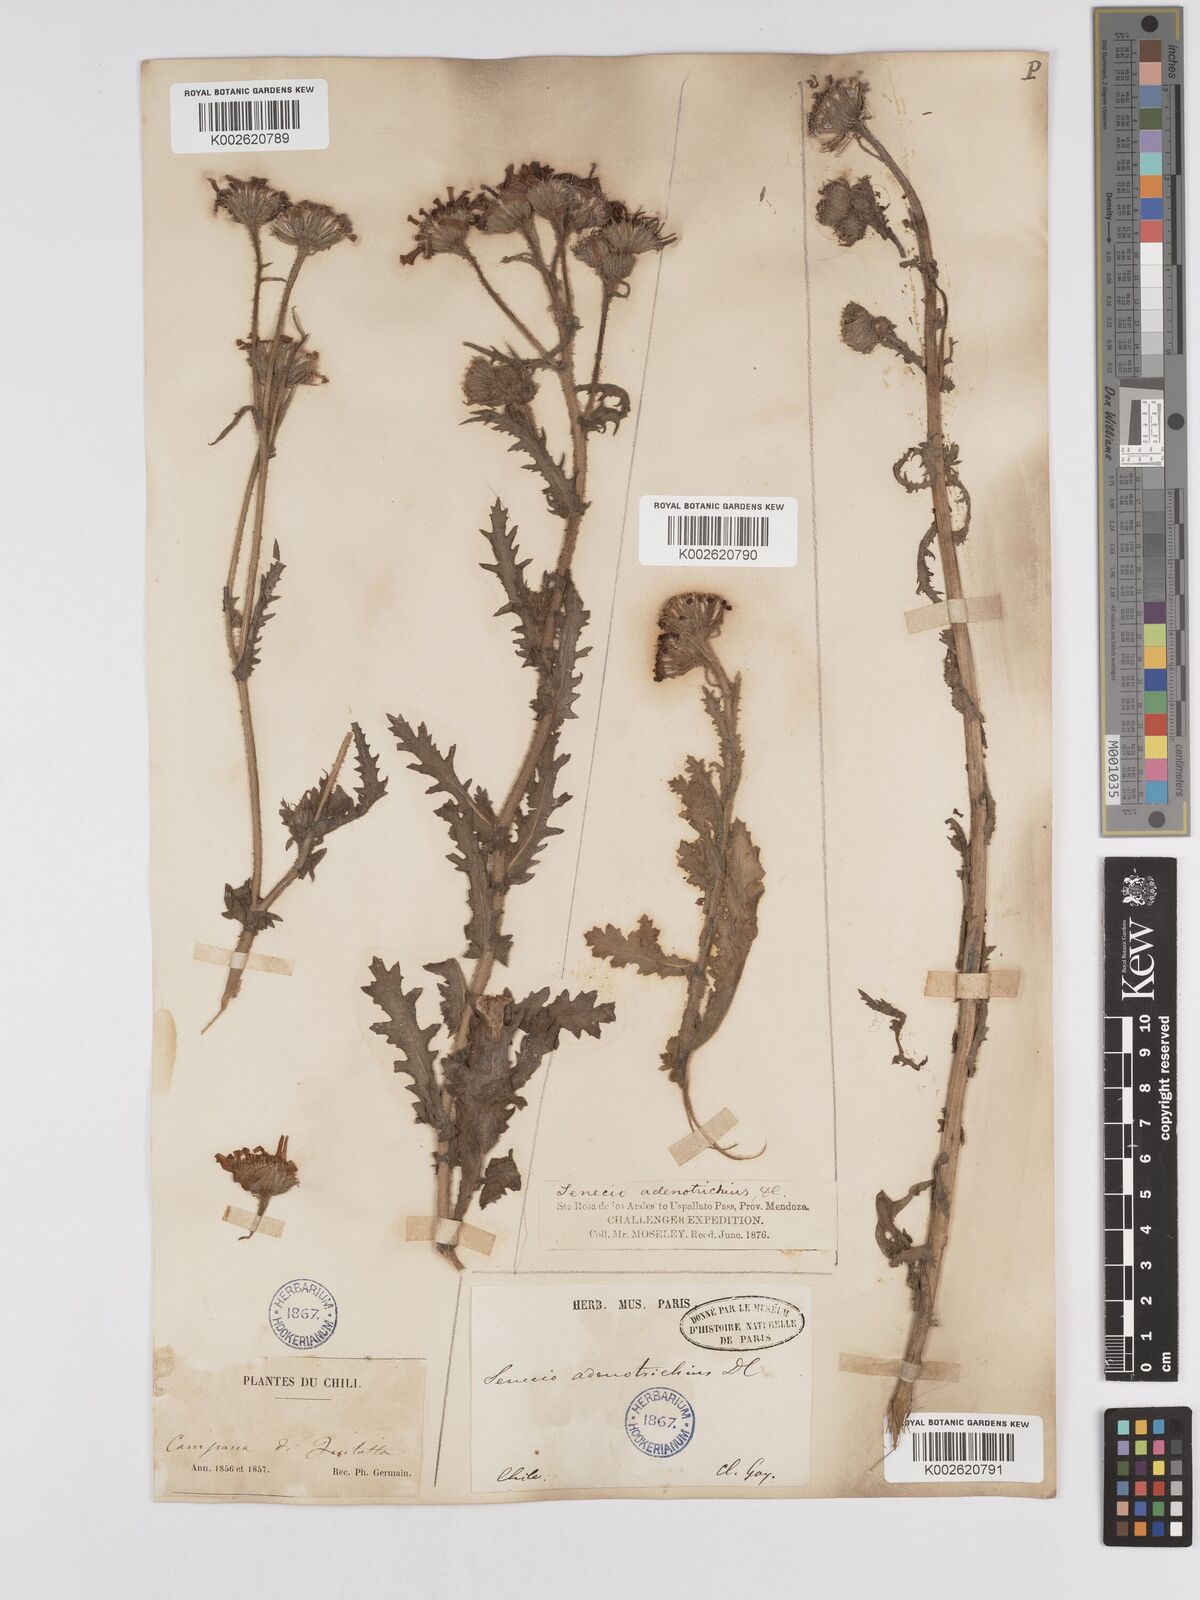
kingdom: Plantae
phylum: Tracheophyta
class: Magnoliopsida
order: Asterales
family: Asteraceae
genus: Senecio
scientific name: Senecio adenotrichius
